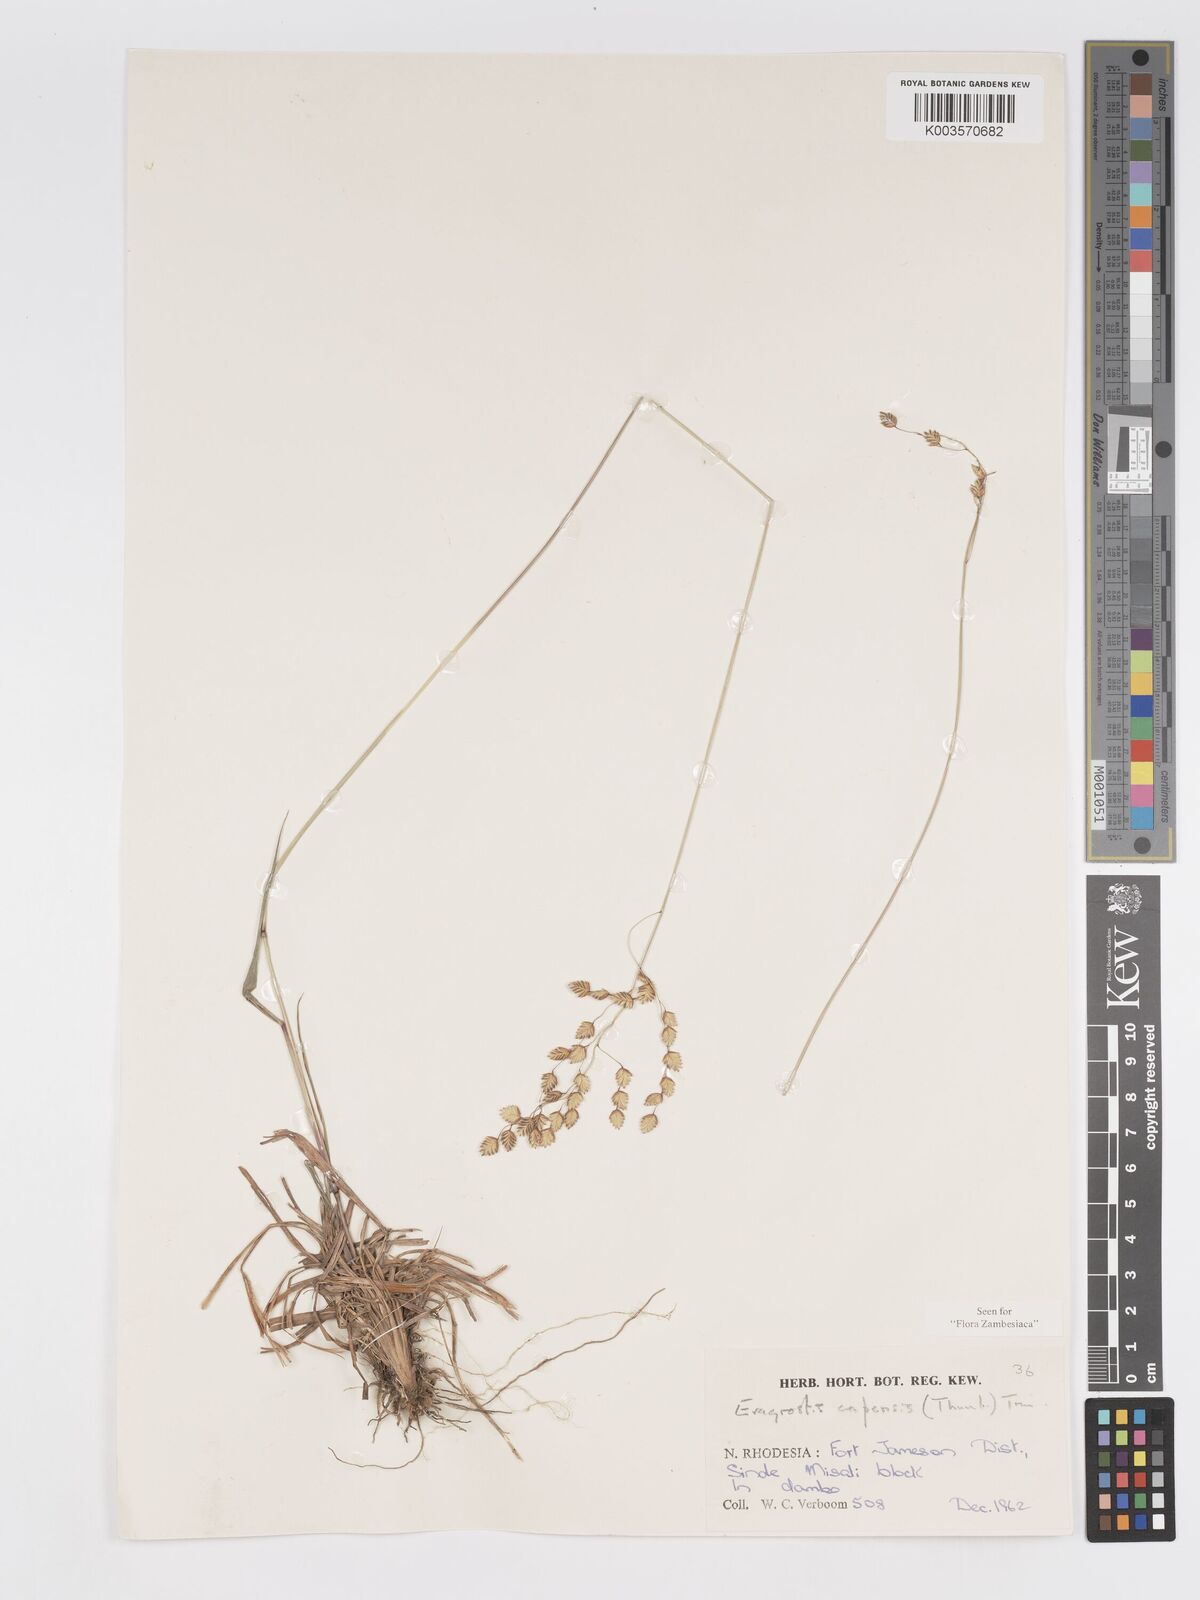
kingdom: Plantae
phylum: Tracheophyta
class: Liliopsida
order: Poales
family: Poaceae
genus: Eragrostis
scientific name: Eragrostis capensis
